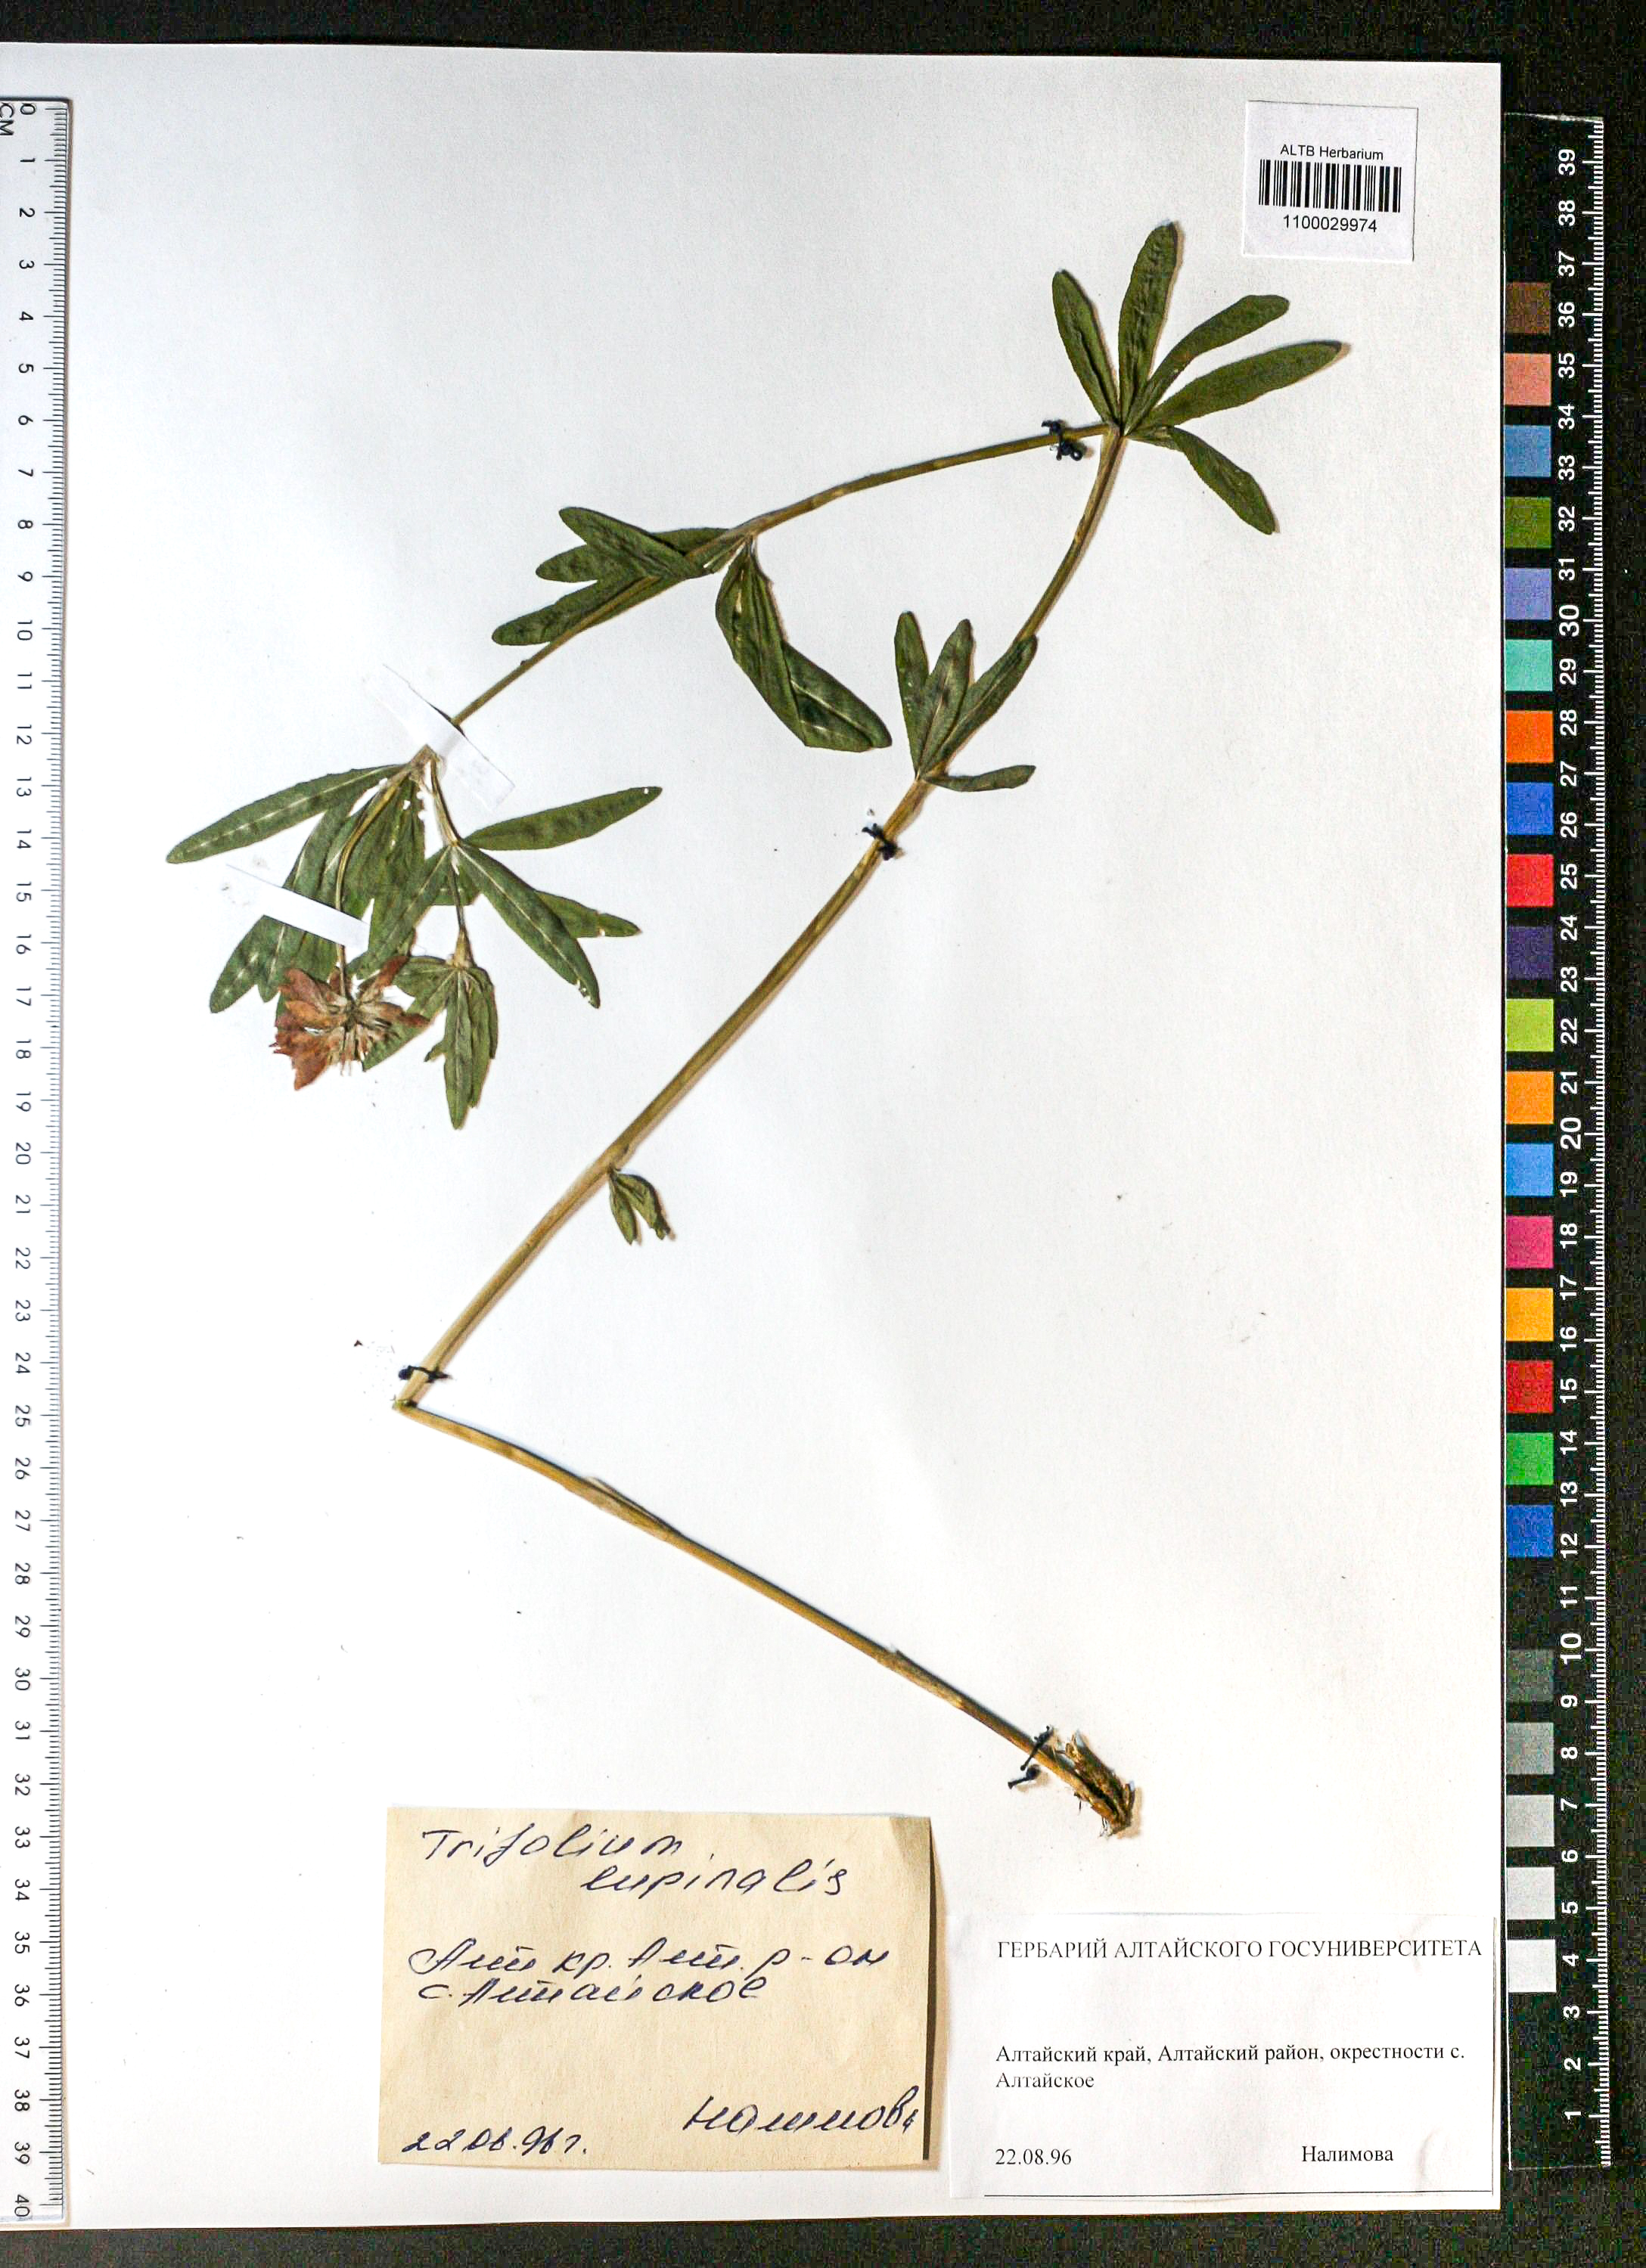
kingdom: Plantae
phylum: Tracheophyta
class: Magnoliopsida
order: Fabales
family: Fabaceae
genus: Trifolium
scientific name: Trifolium lupinaster
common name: Lupine clover
